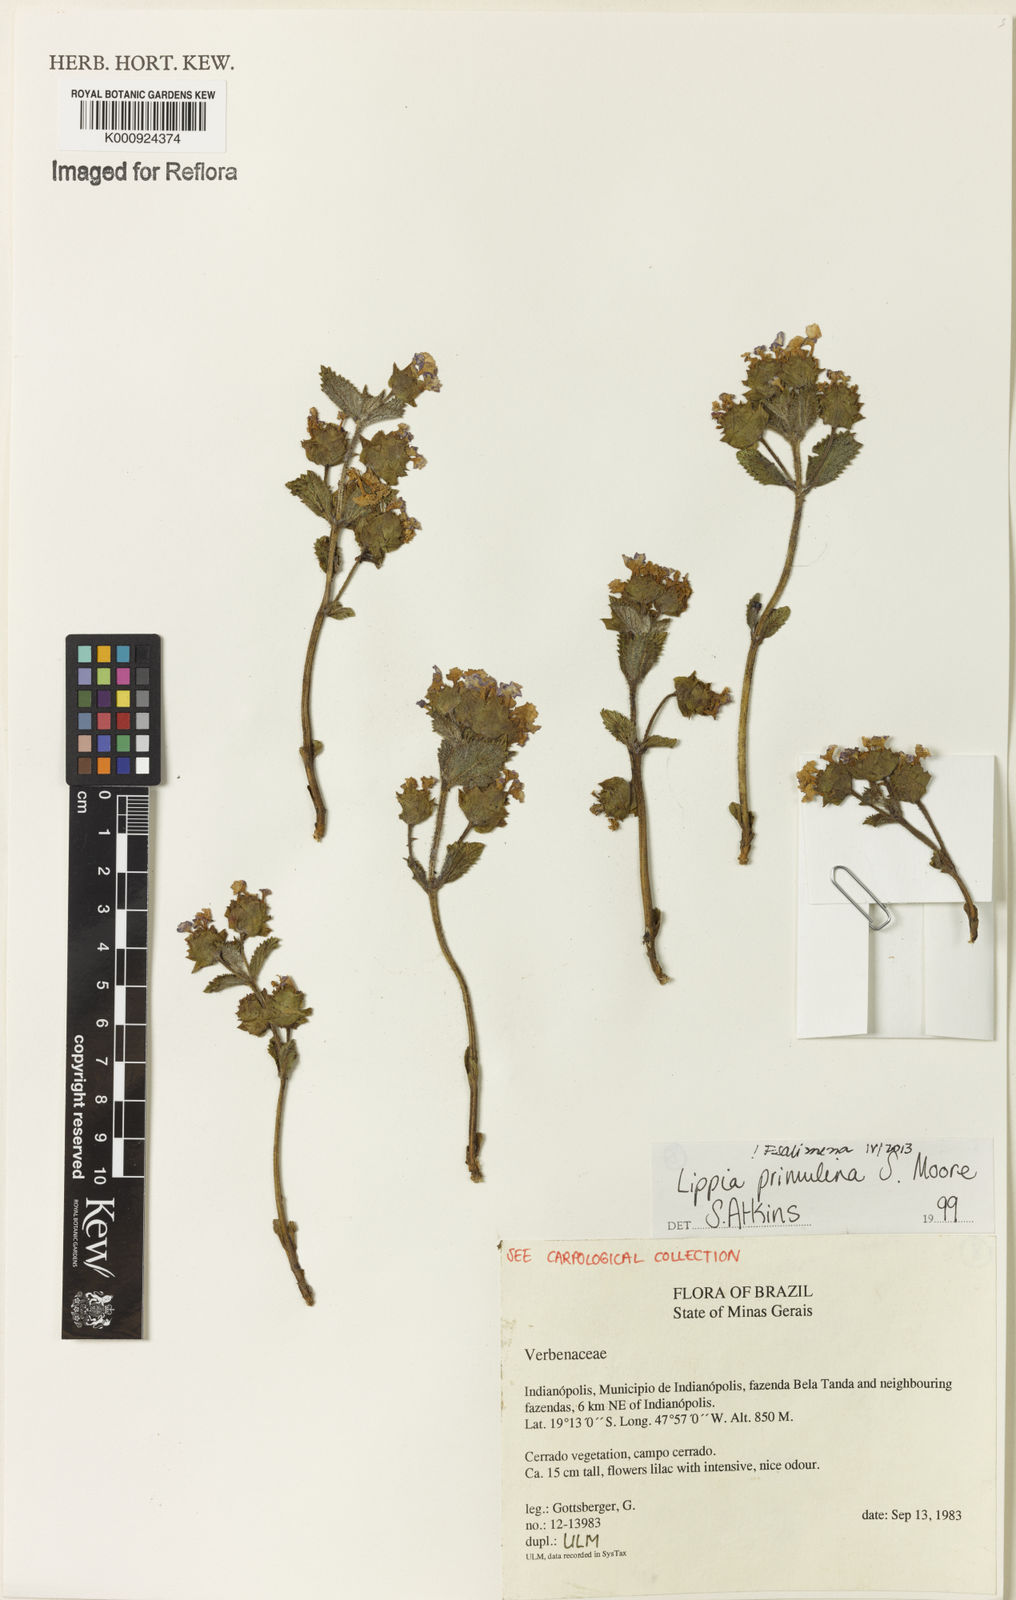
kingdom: Plantae
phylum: Tracheophyta
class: Magnoliopsida
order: Lamiales
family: Verbenaceae
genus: Lippia
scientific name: Lippia primulina
